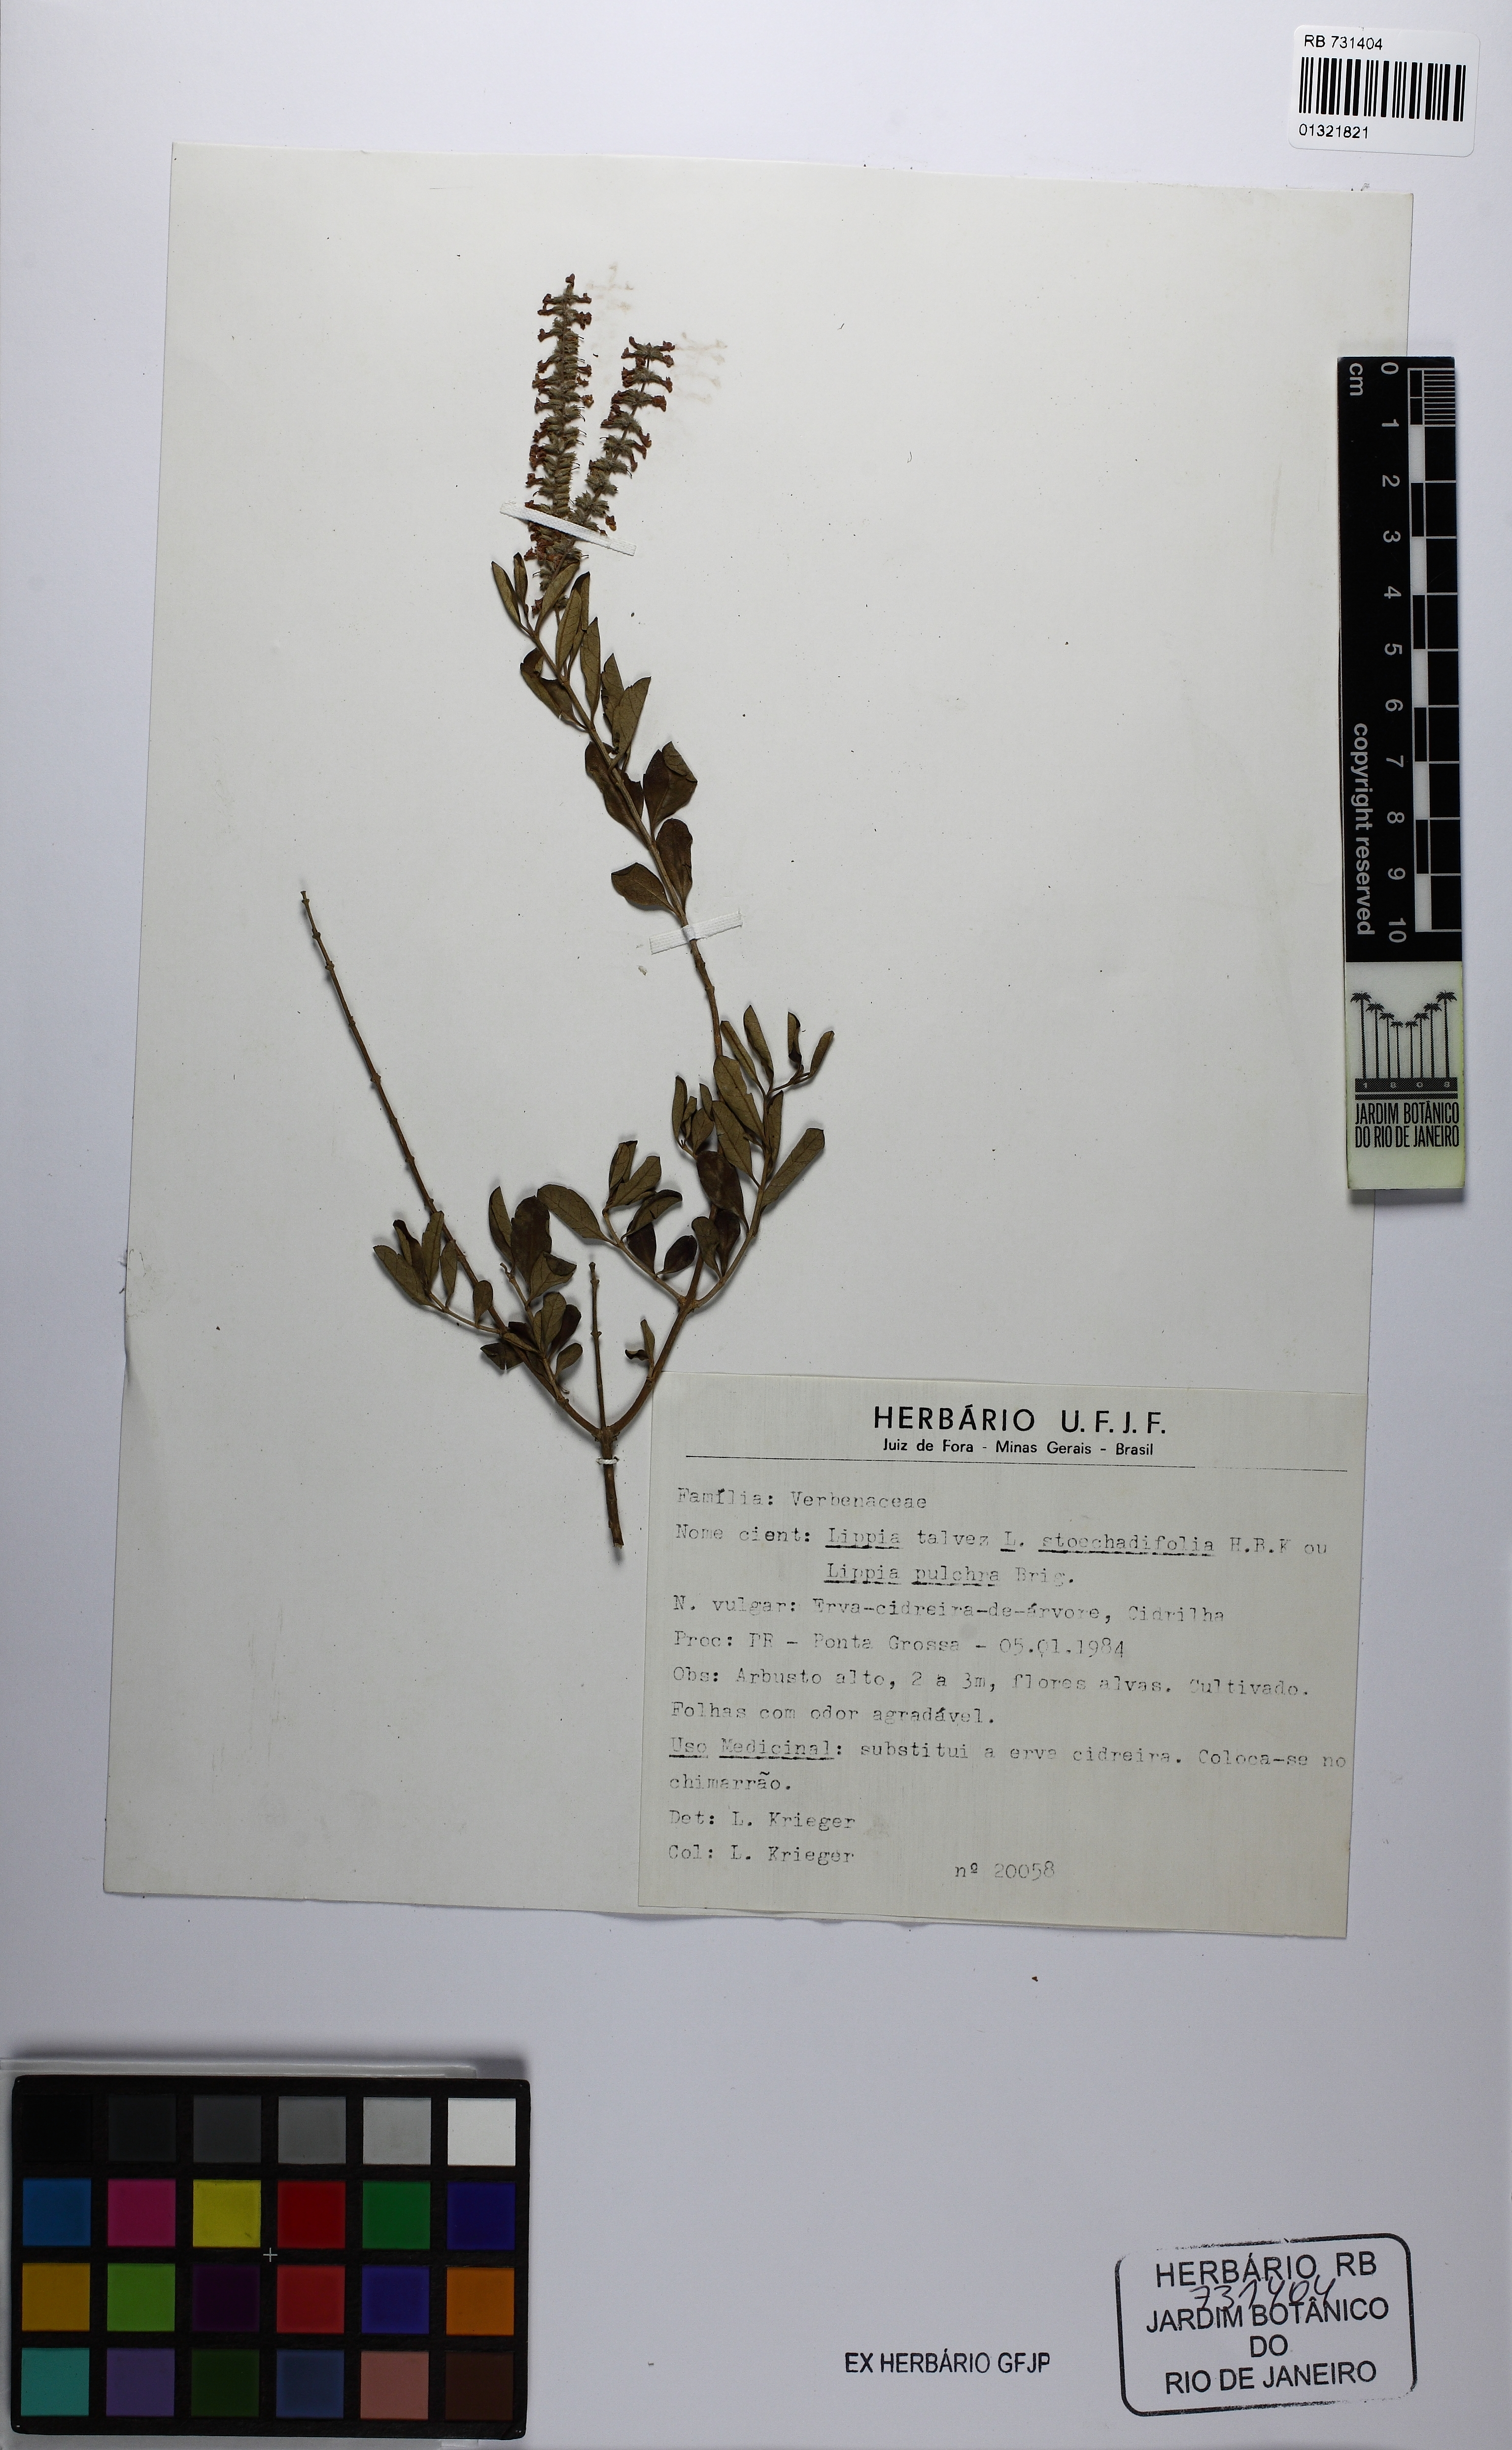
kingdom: Plantae
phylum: Tracheophyta
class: Magnoliopsida
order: Lamiales
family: Verbenaceae
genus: Lippia
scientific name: Lippia
